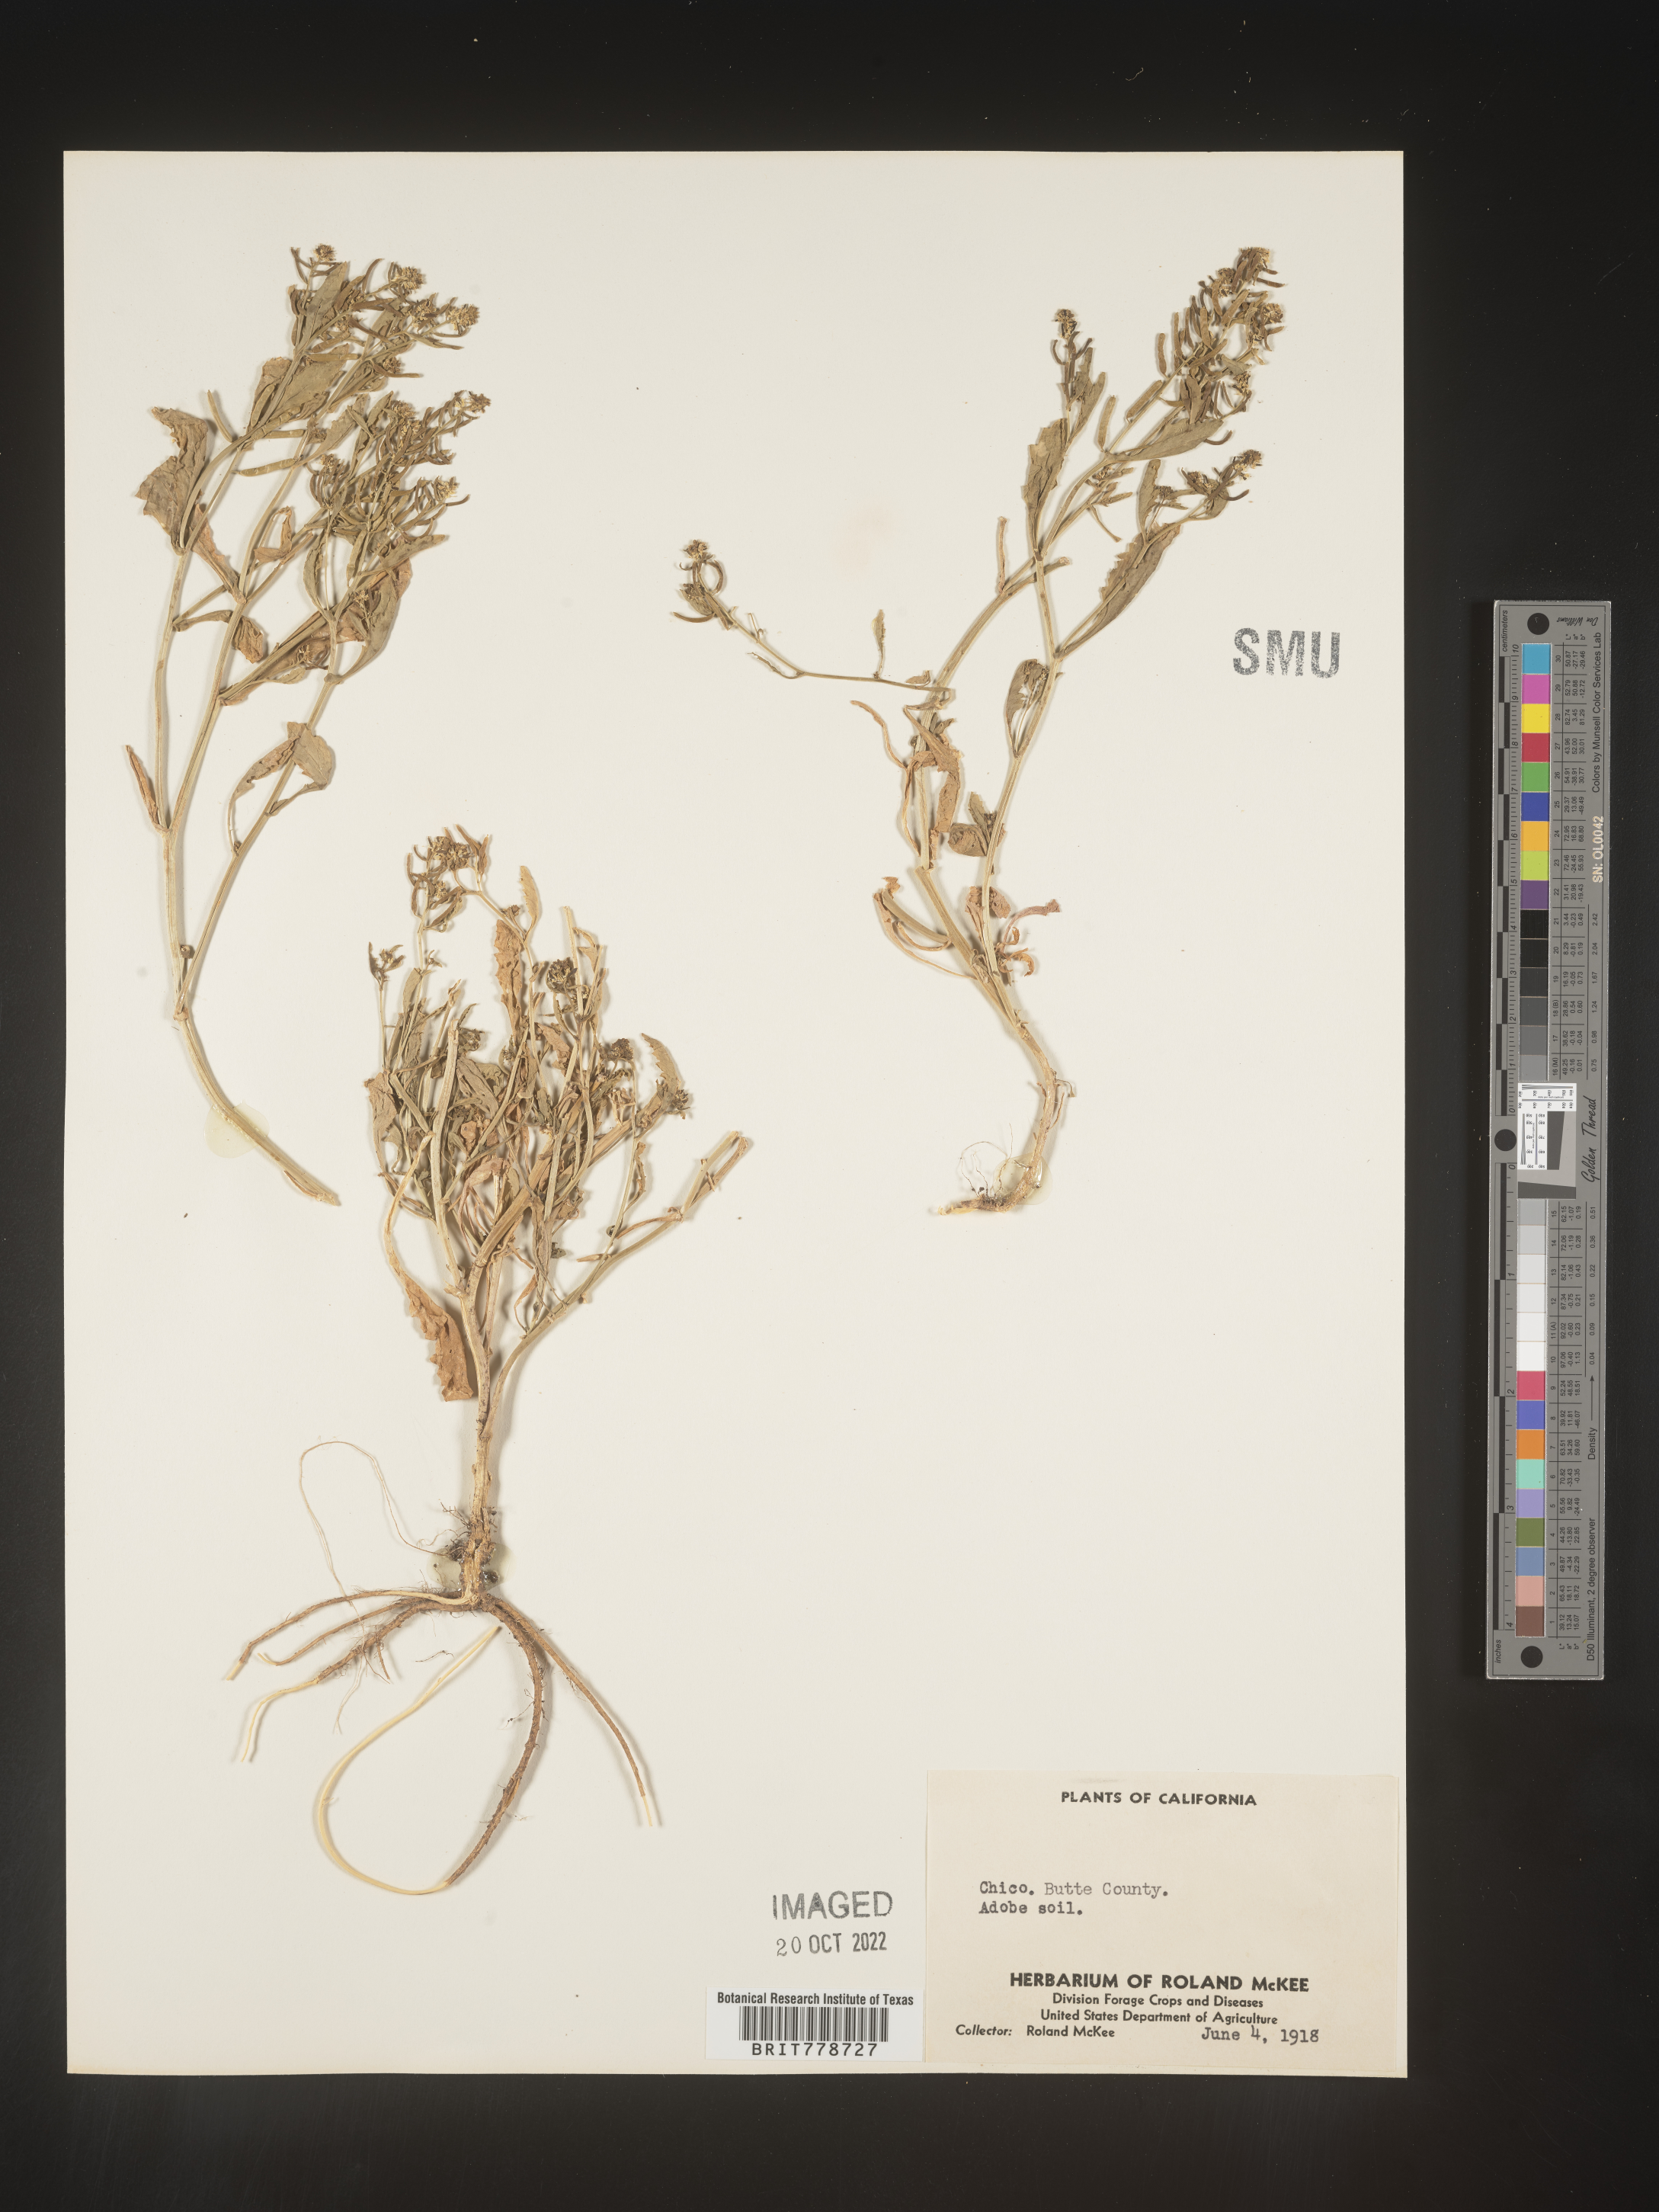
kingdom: Plantae
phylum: Tracheophyta
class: Magnoliopsida
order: Brassicales
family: Brassicaceae
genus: Rorippa
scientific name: Rorippa
